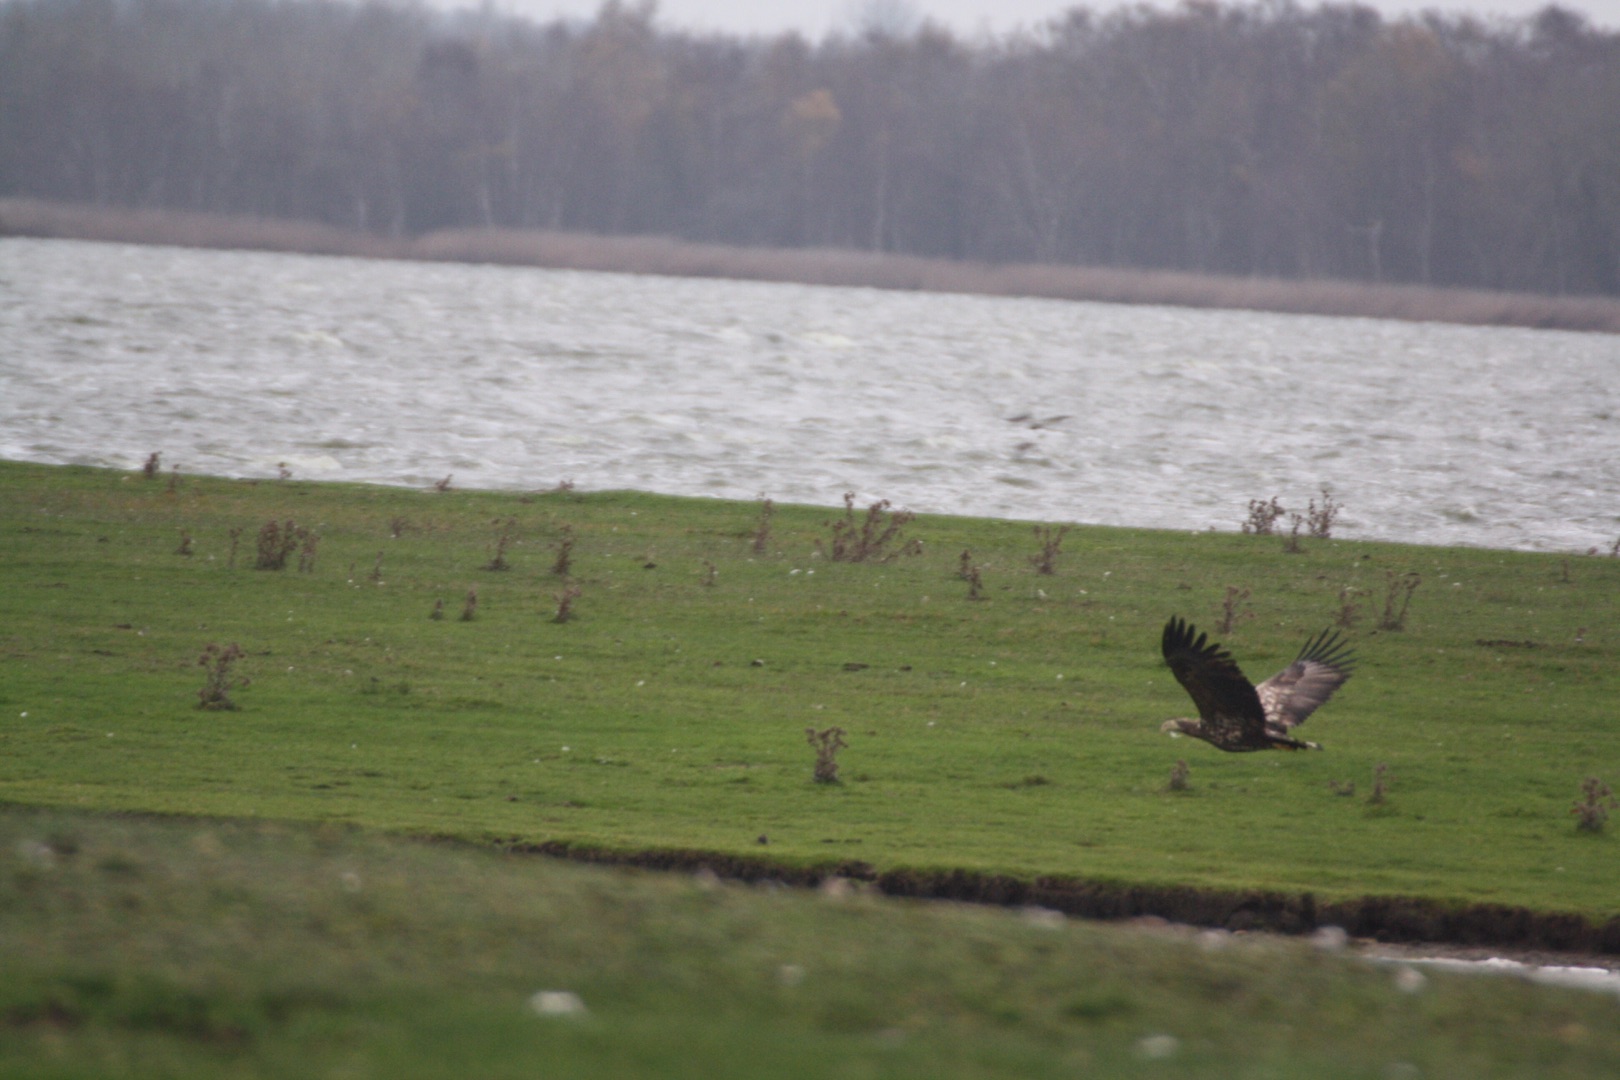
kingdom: Animalia
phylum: Chordata
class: Aves
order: Accipitriformes
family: Accipitridae
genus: Haliaeetus
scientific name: Haliaeetus albicilla
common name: Havørn
